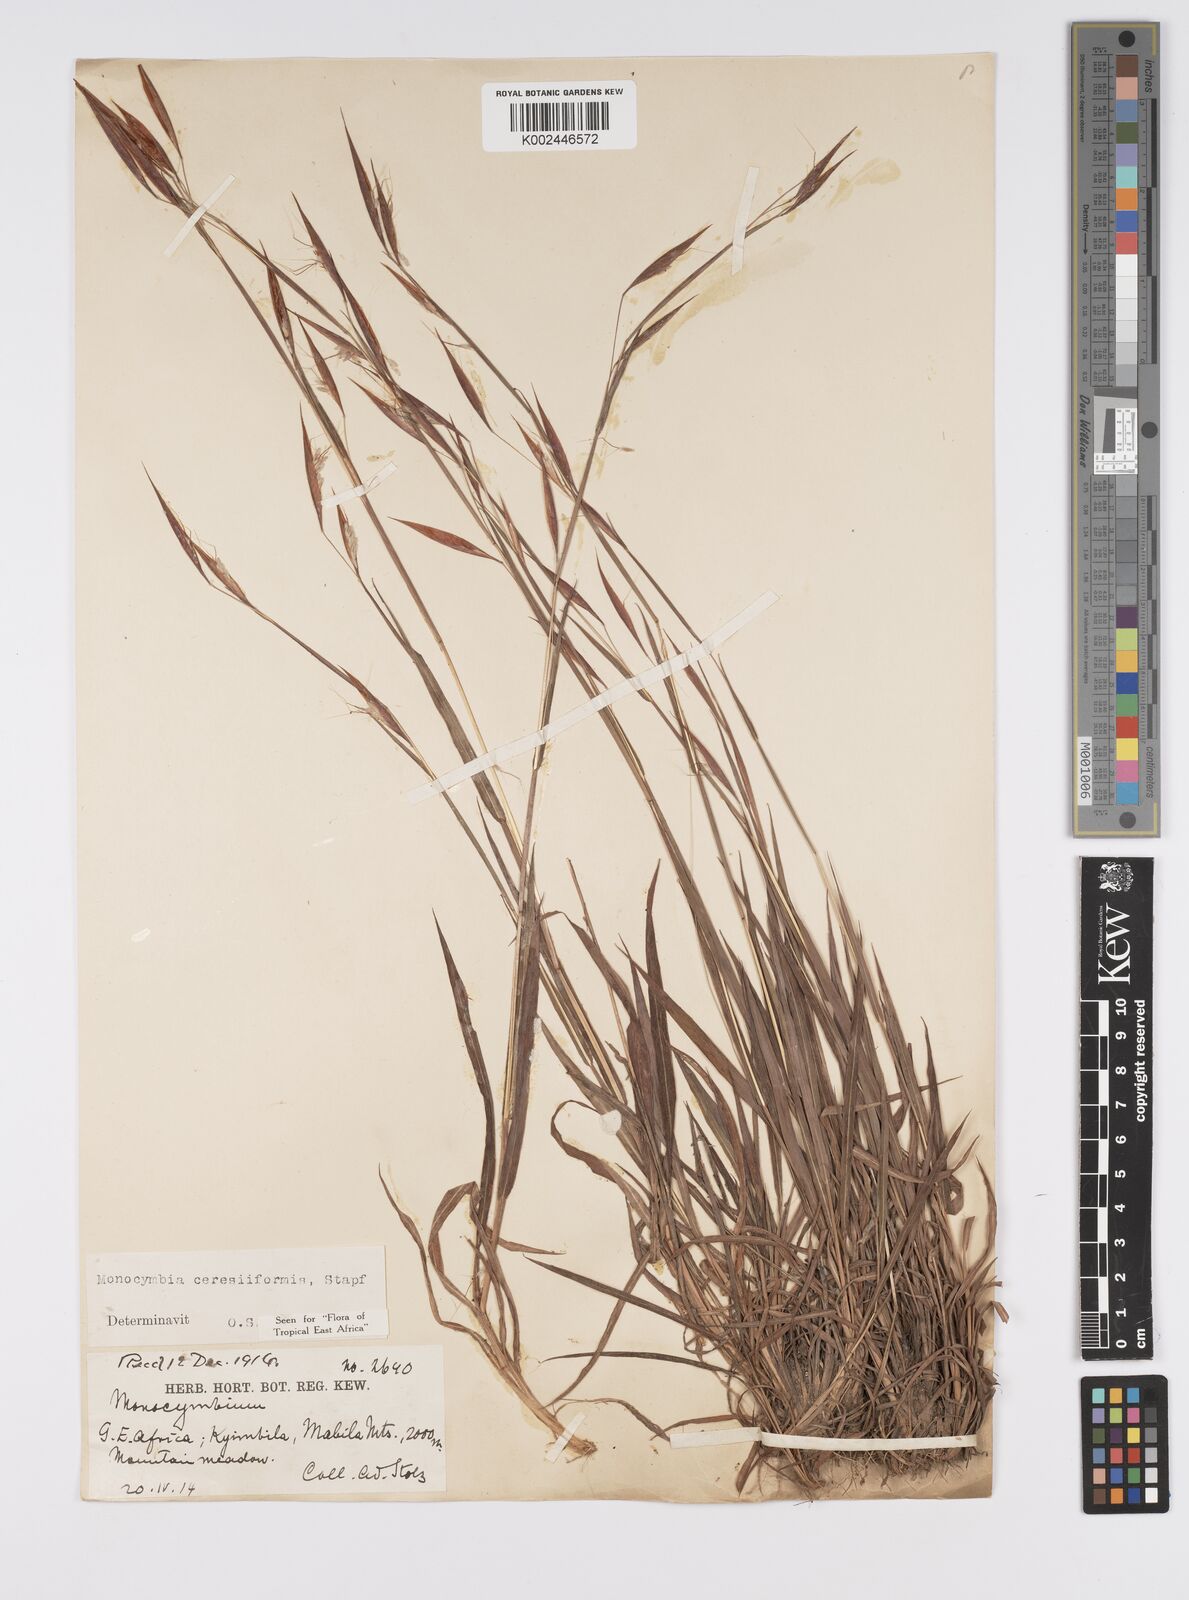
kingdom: Plantae
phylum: Tracheophyta
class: Liliopsida
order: Poales
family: Poaceae
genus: Monocymbium
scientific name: Monocymbium ceresiiforme
